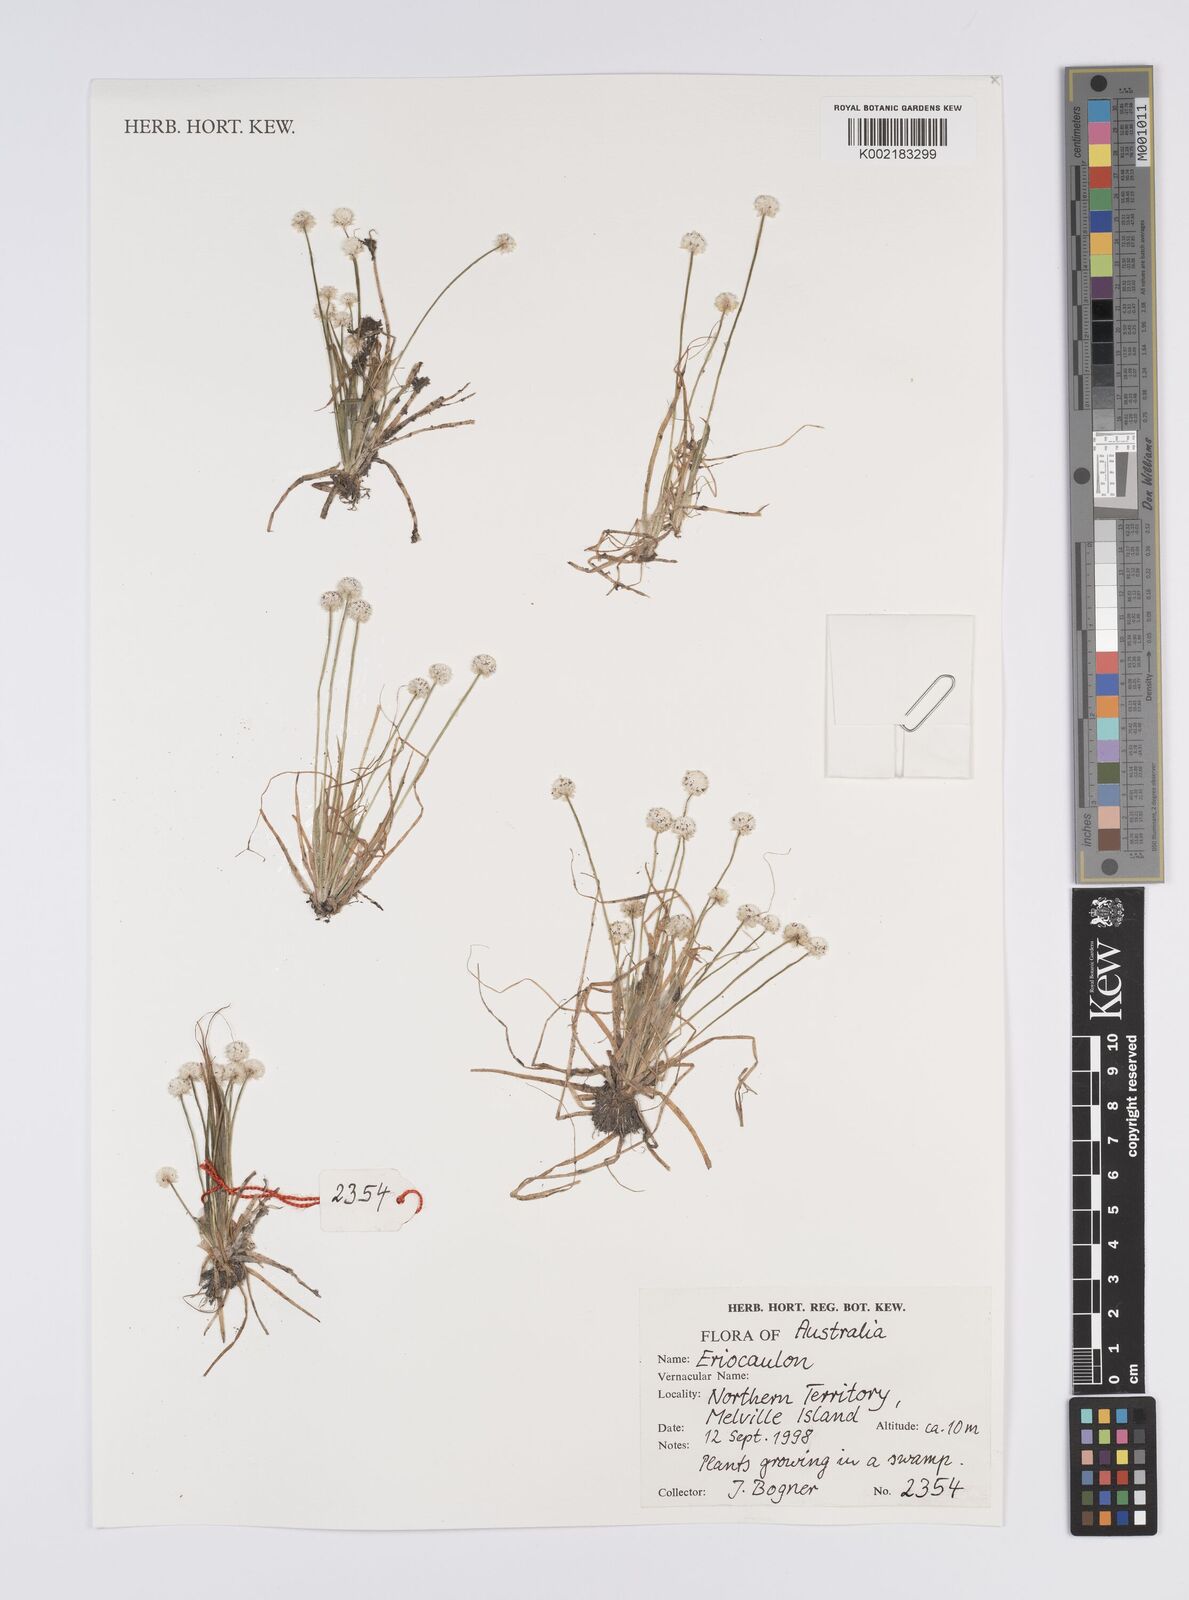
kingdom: Plantae
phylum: Tracheophyta
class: Liliopsida
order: Poales
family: Eriocaulaceae
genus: Eriocaulon
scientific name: Eriocaulon
